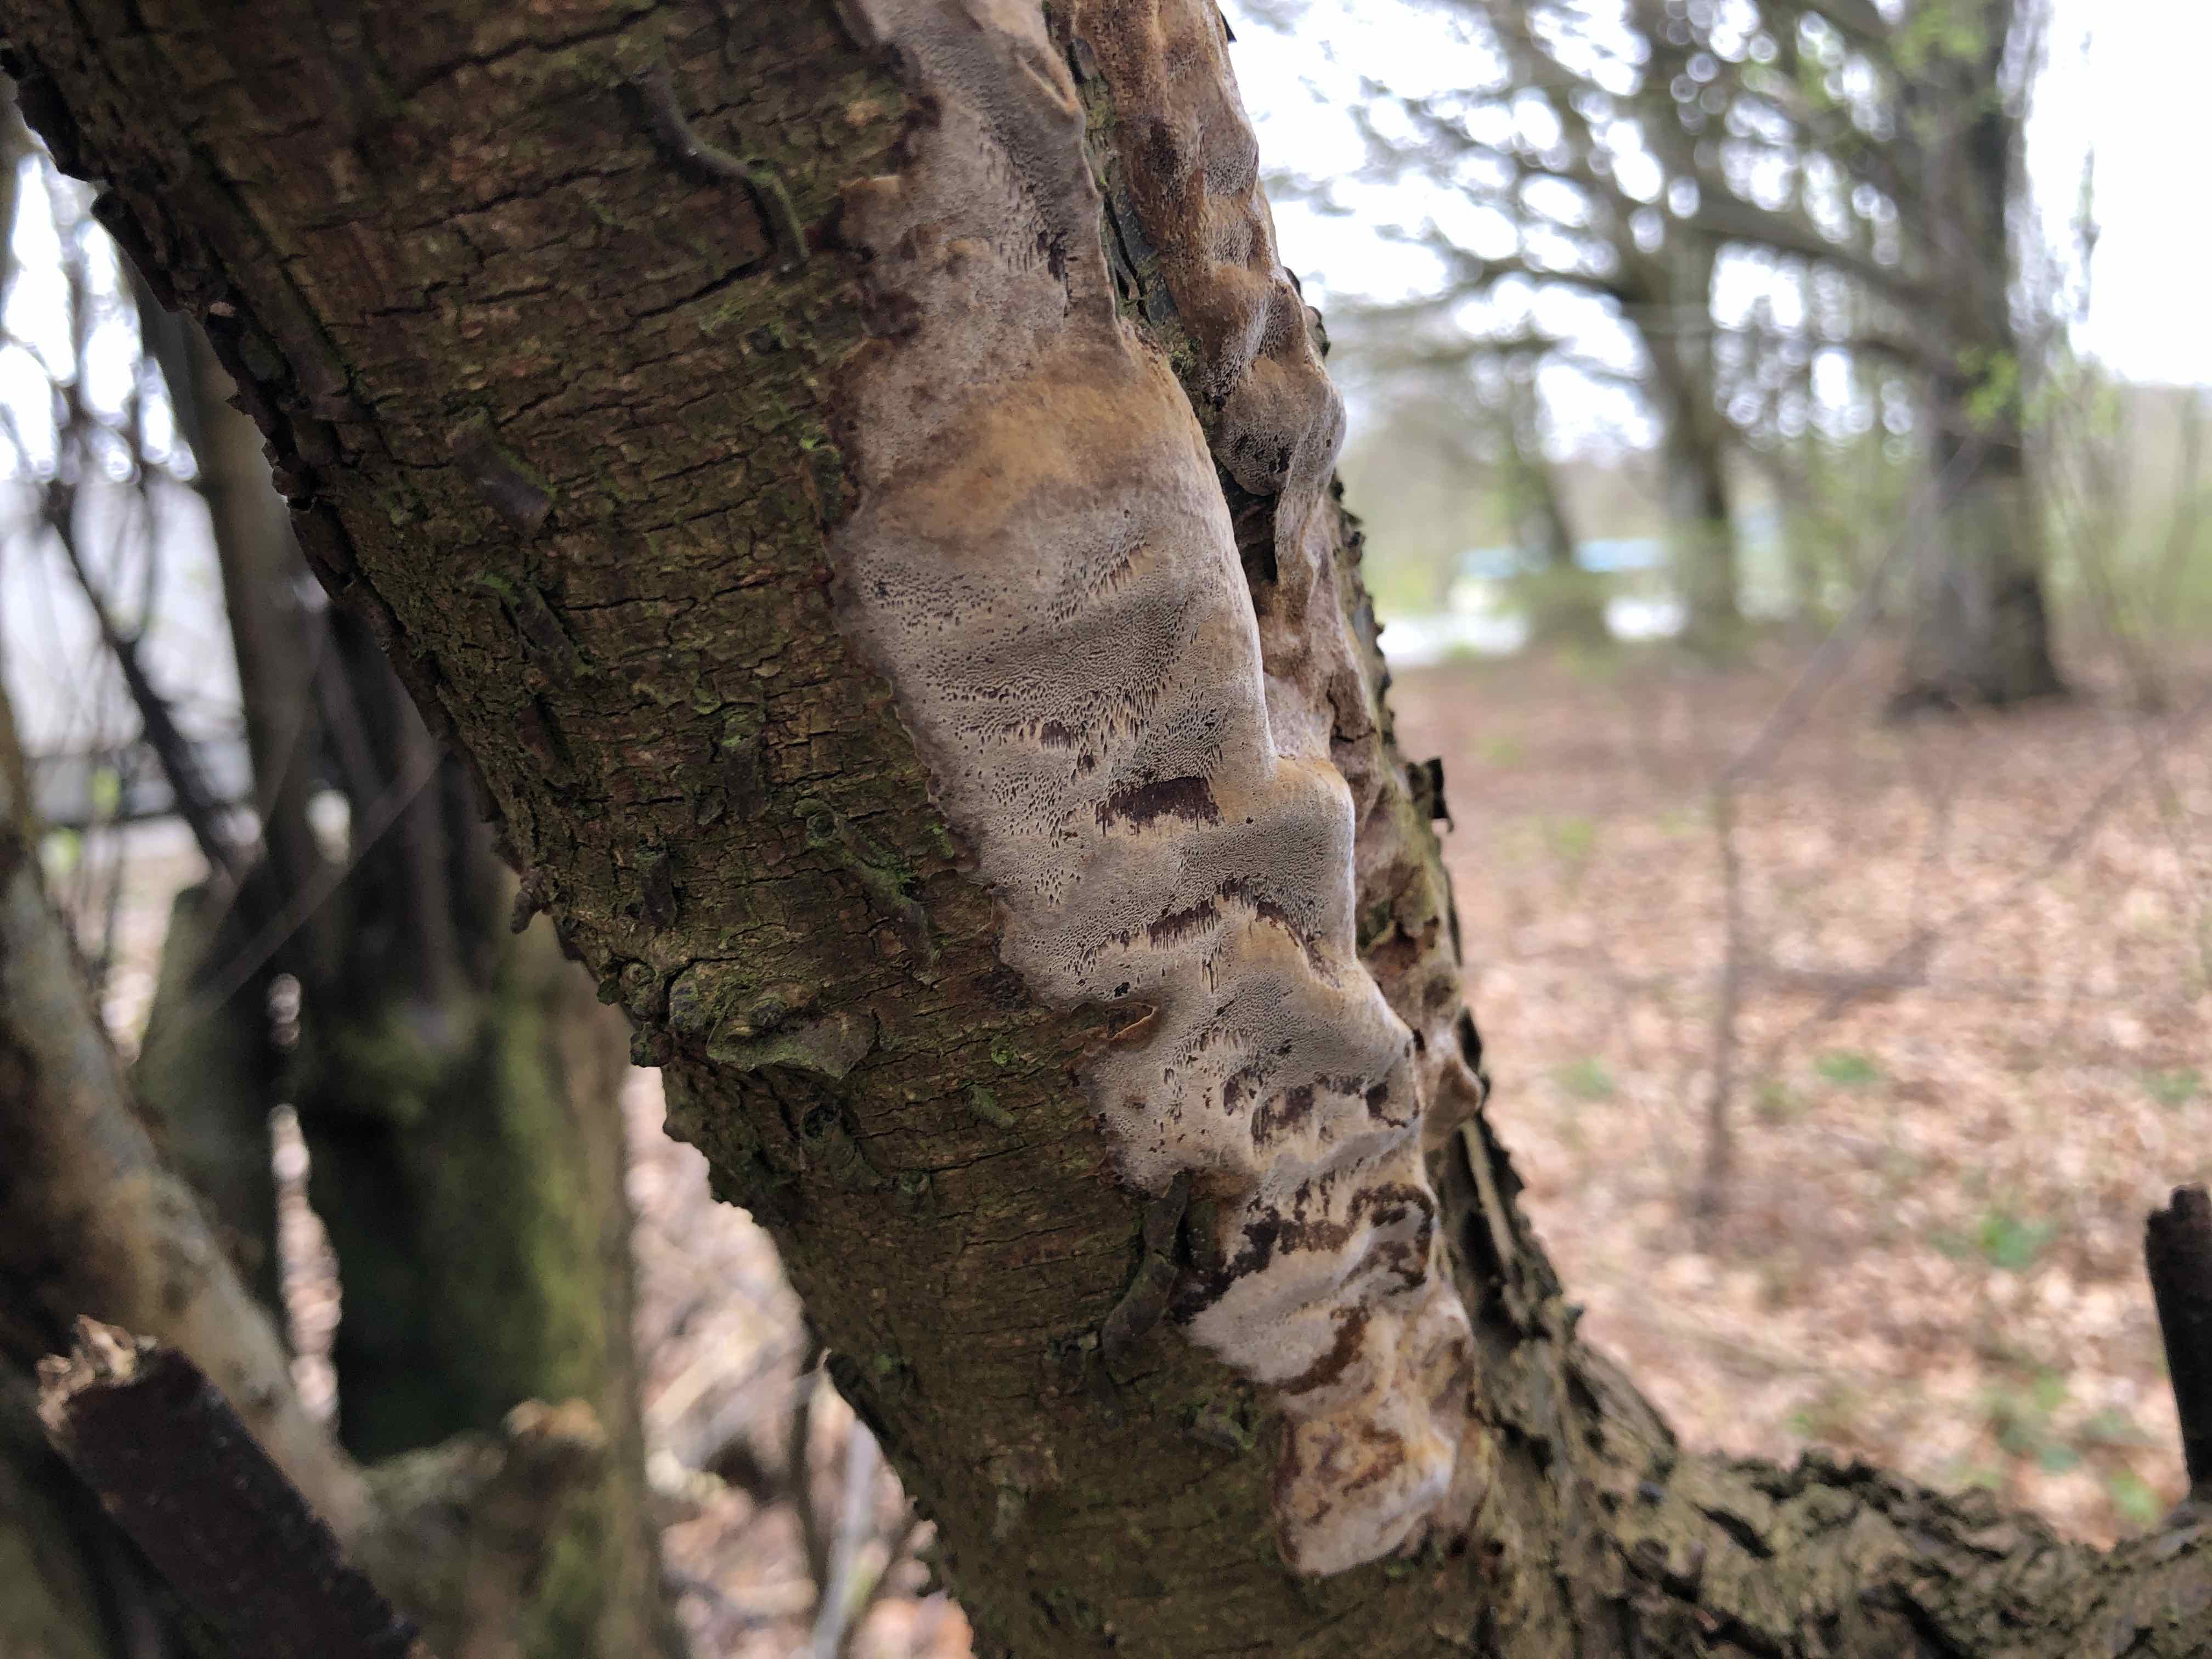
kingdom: Fungi
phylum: Basidiomycota
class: Agaricomycetes
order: Hymenochaetales
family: Hymenochaetaceae
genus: Phellinus
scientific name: Phellinus pomaceus
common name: blomme-ildporesvamp
